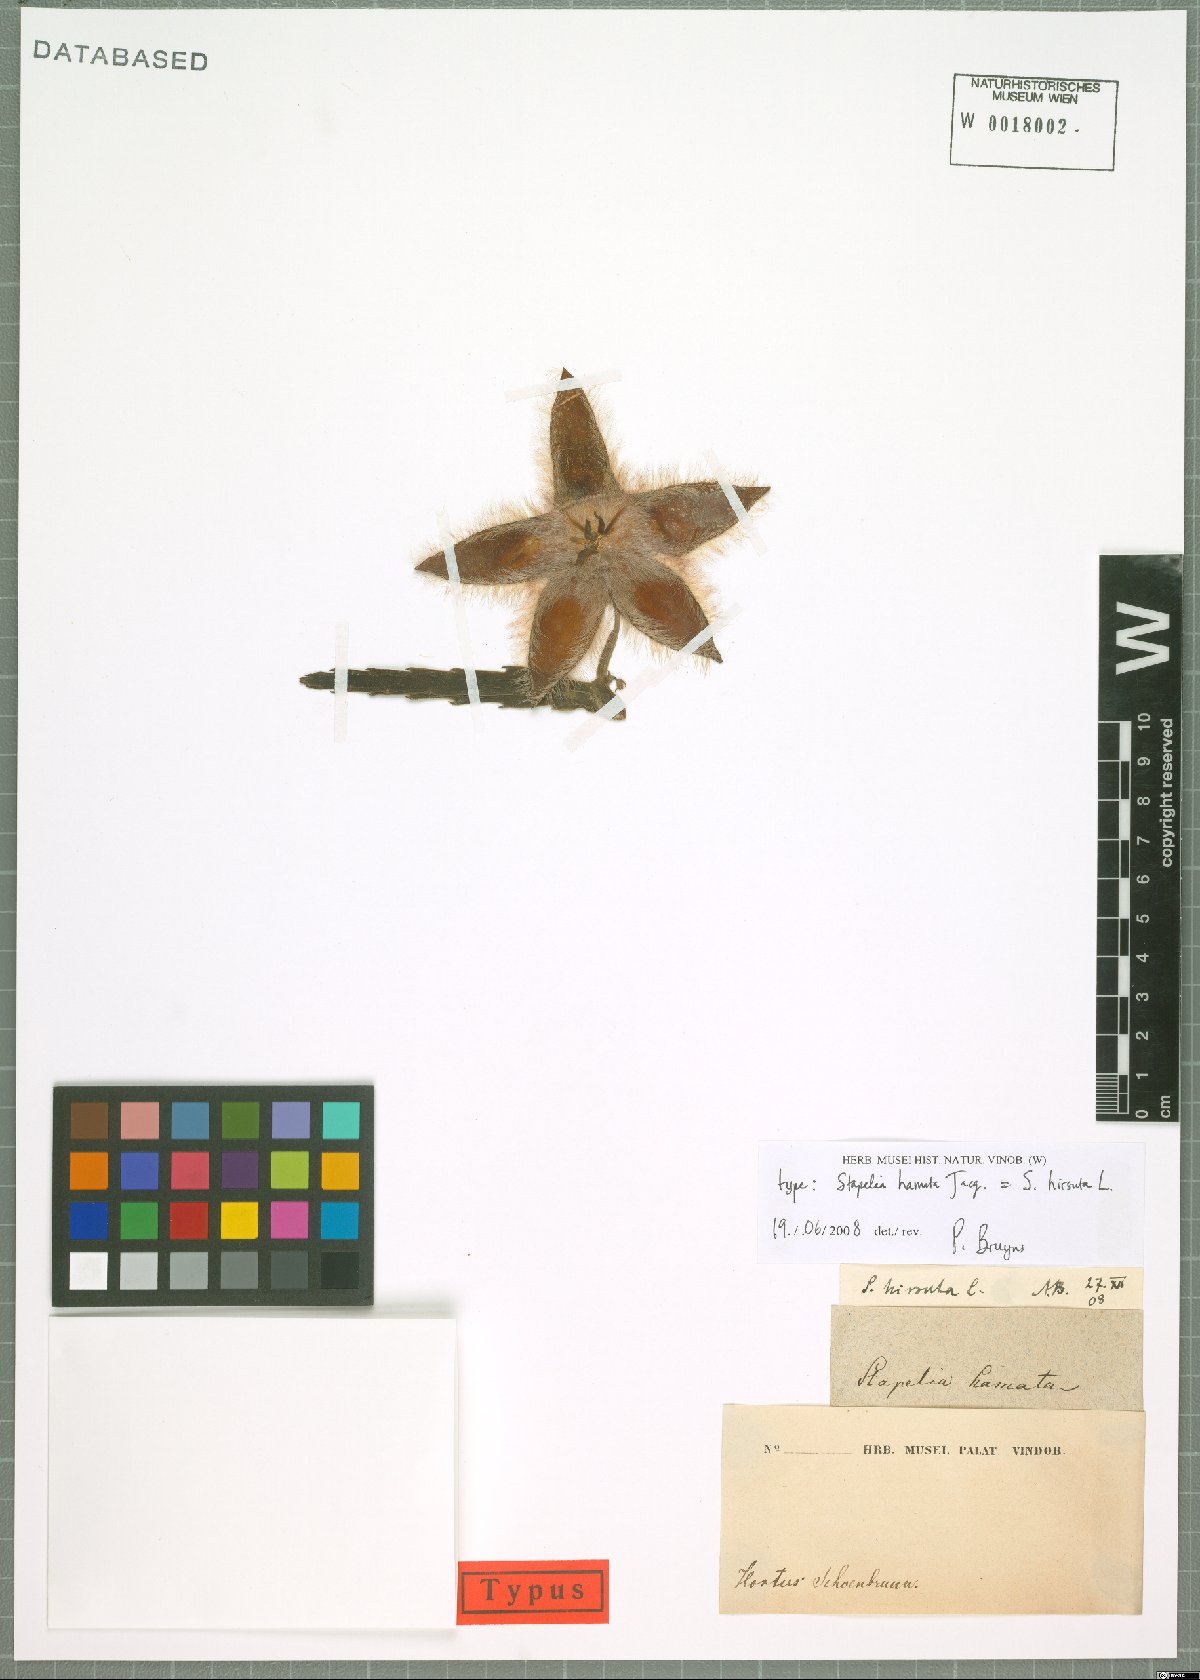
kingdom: Plantae
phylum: Tracheophyta
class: Magnoliopsida
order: Gentianales
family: Apocynaceae
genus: Ceropegia
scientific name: Ceropegia pulvinata
